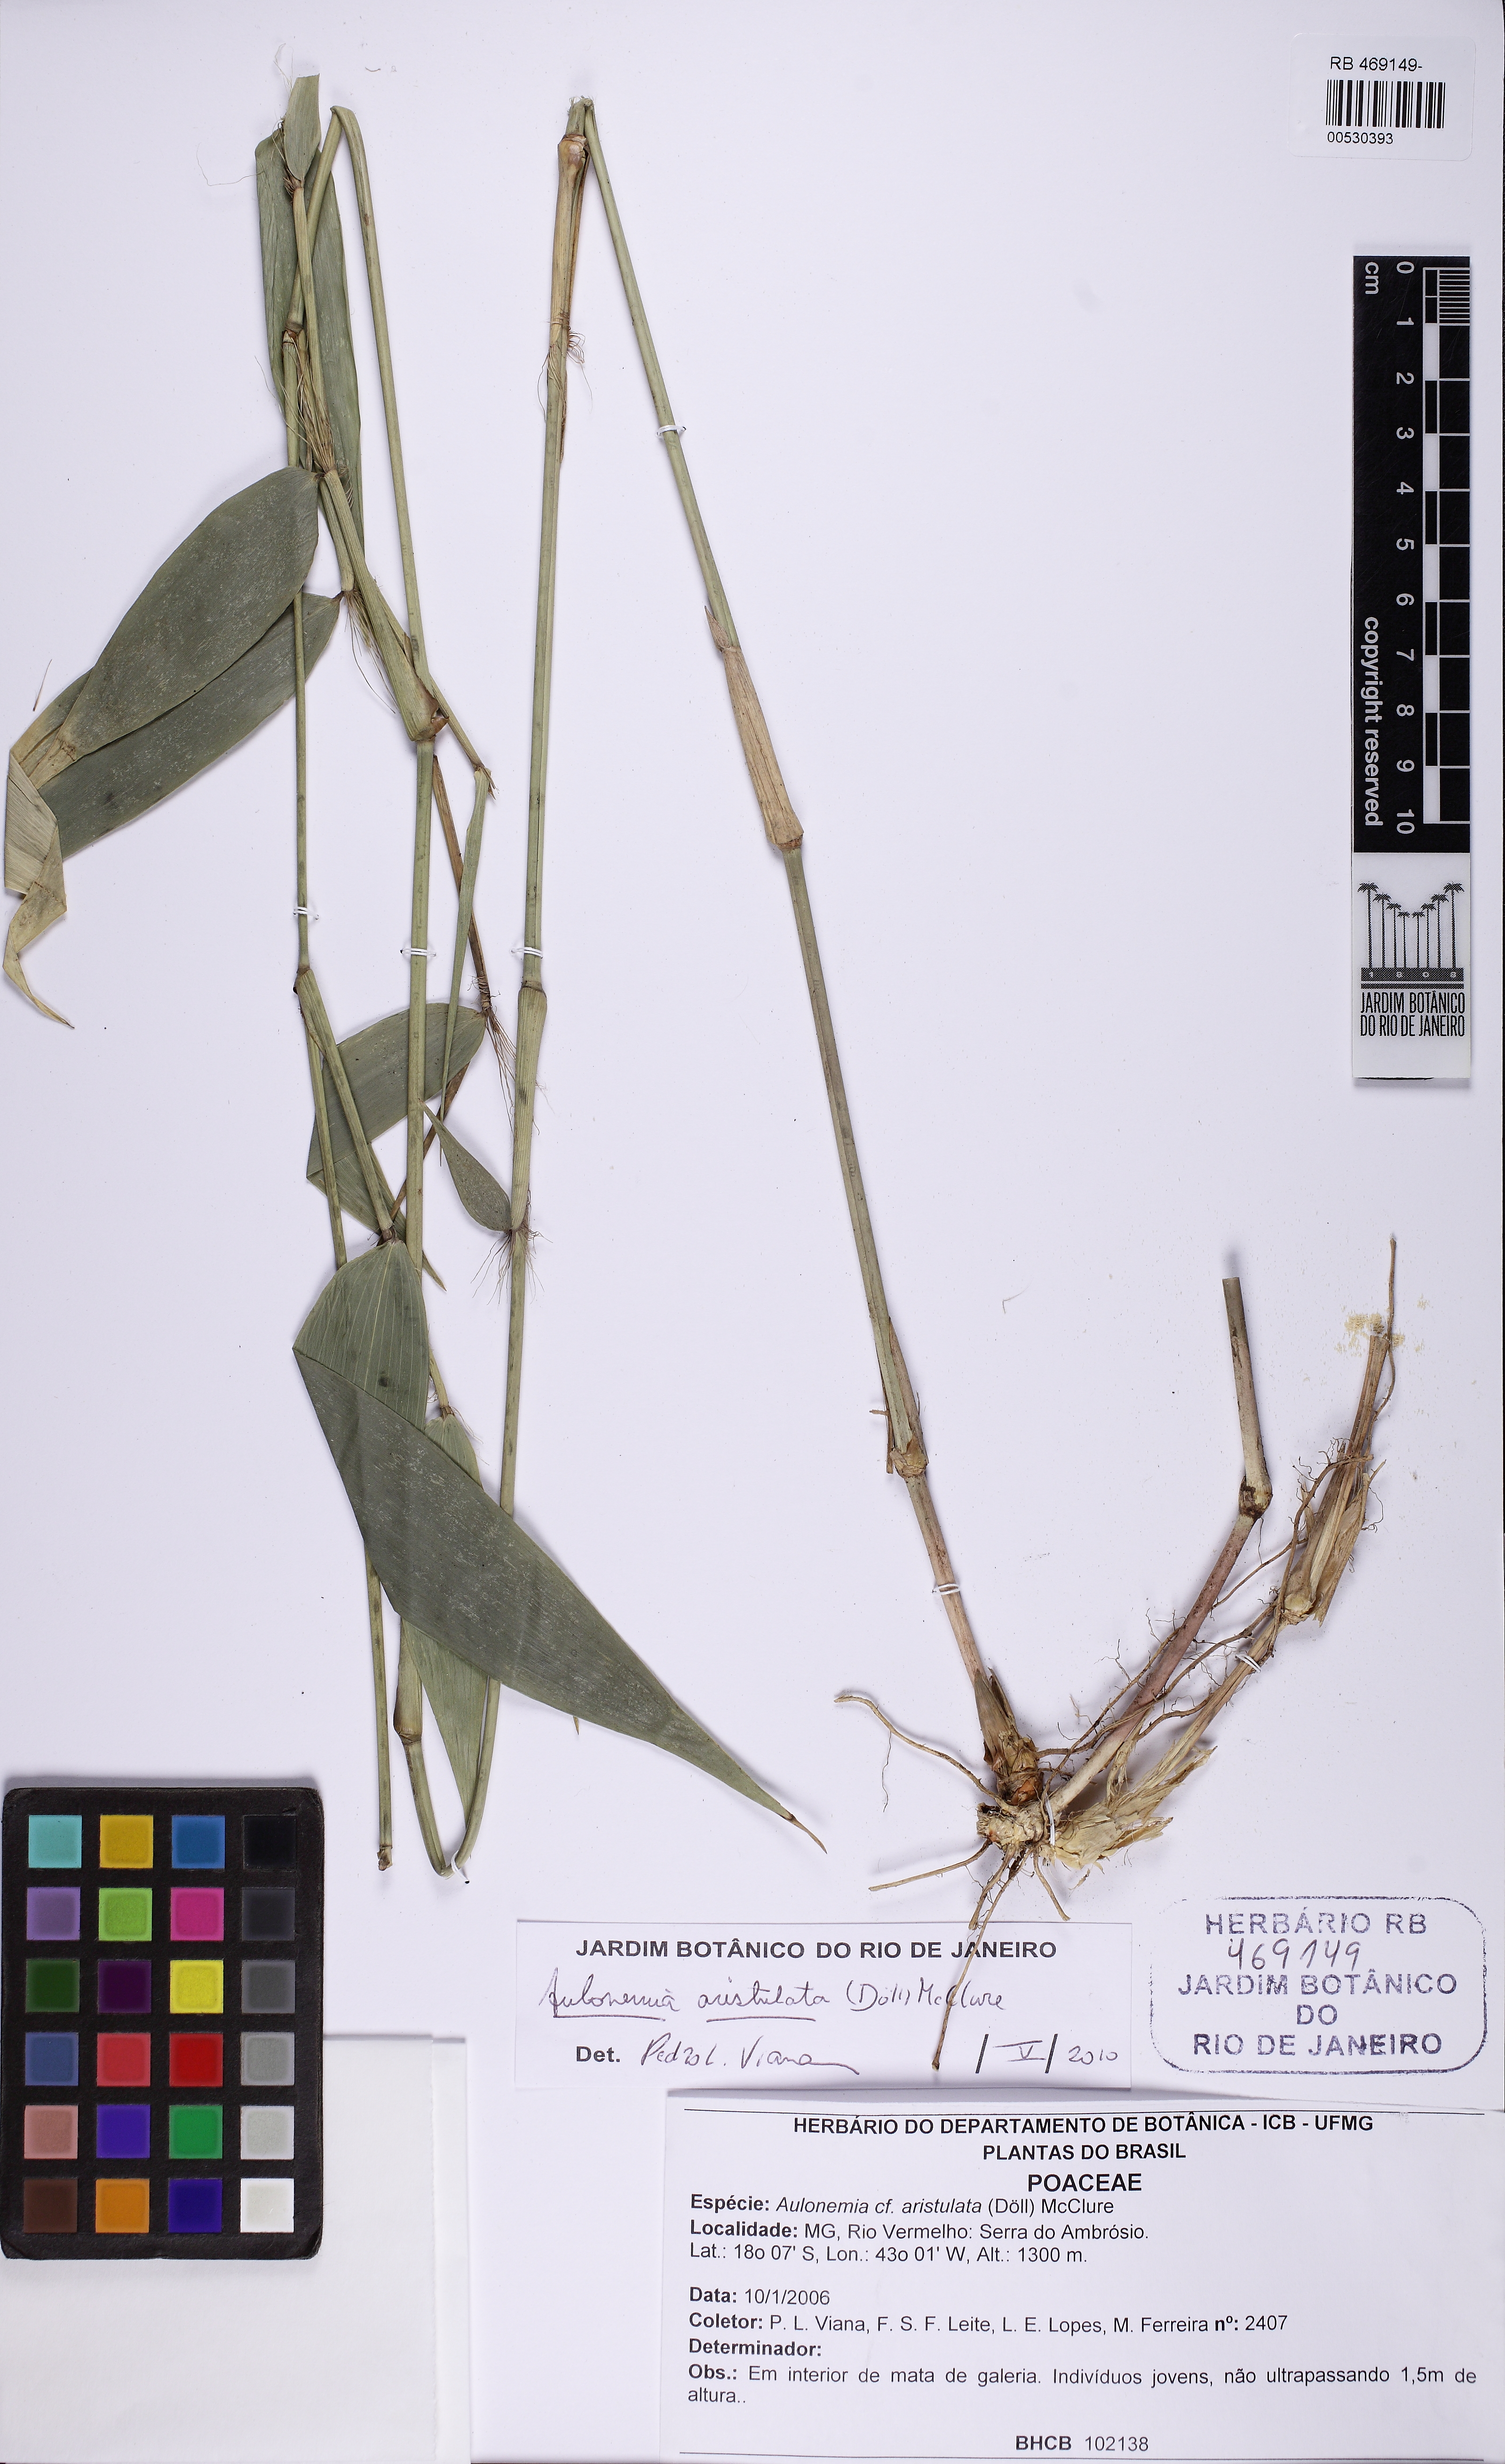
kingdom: Plantae
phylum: Tracheophyta
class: Liliopsida
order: Poales
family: Poaceae
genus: Aulonemia
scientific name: Aulonemia aristulata
